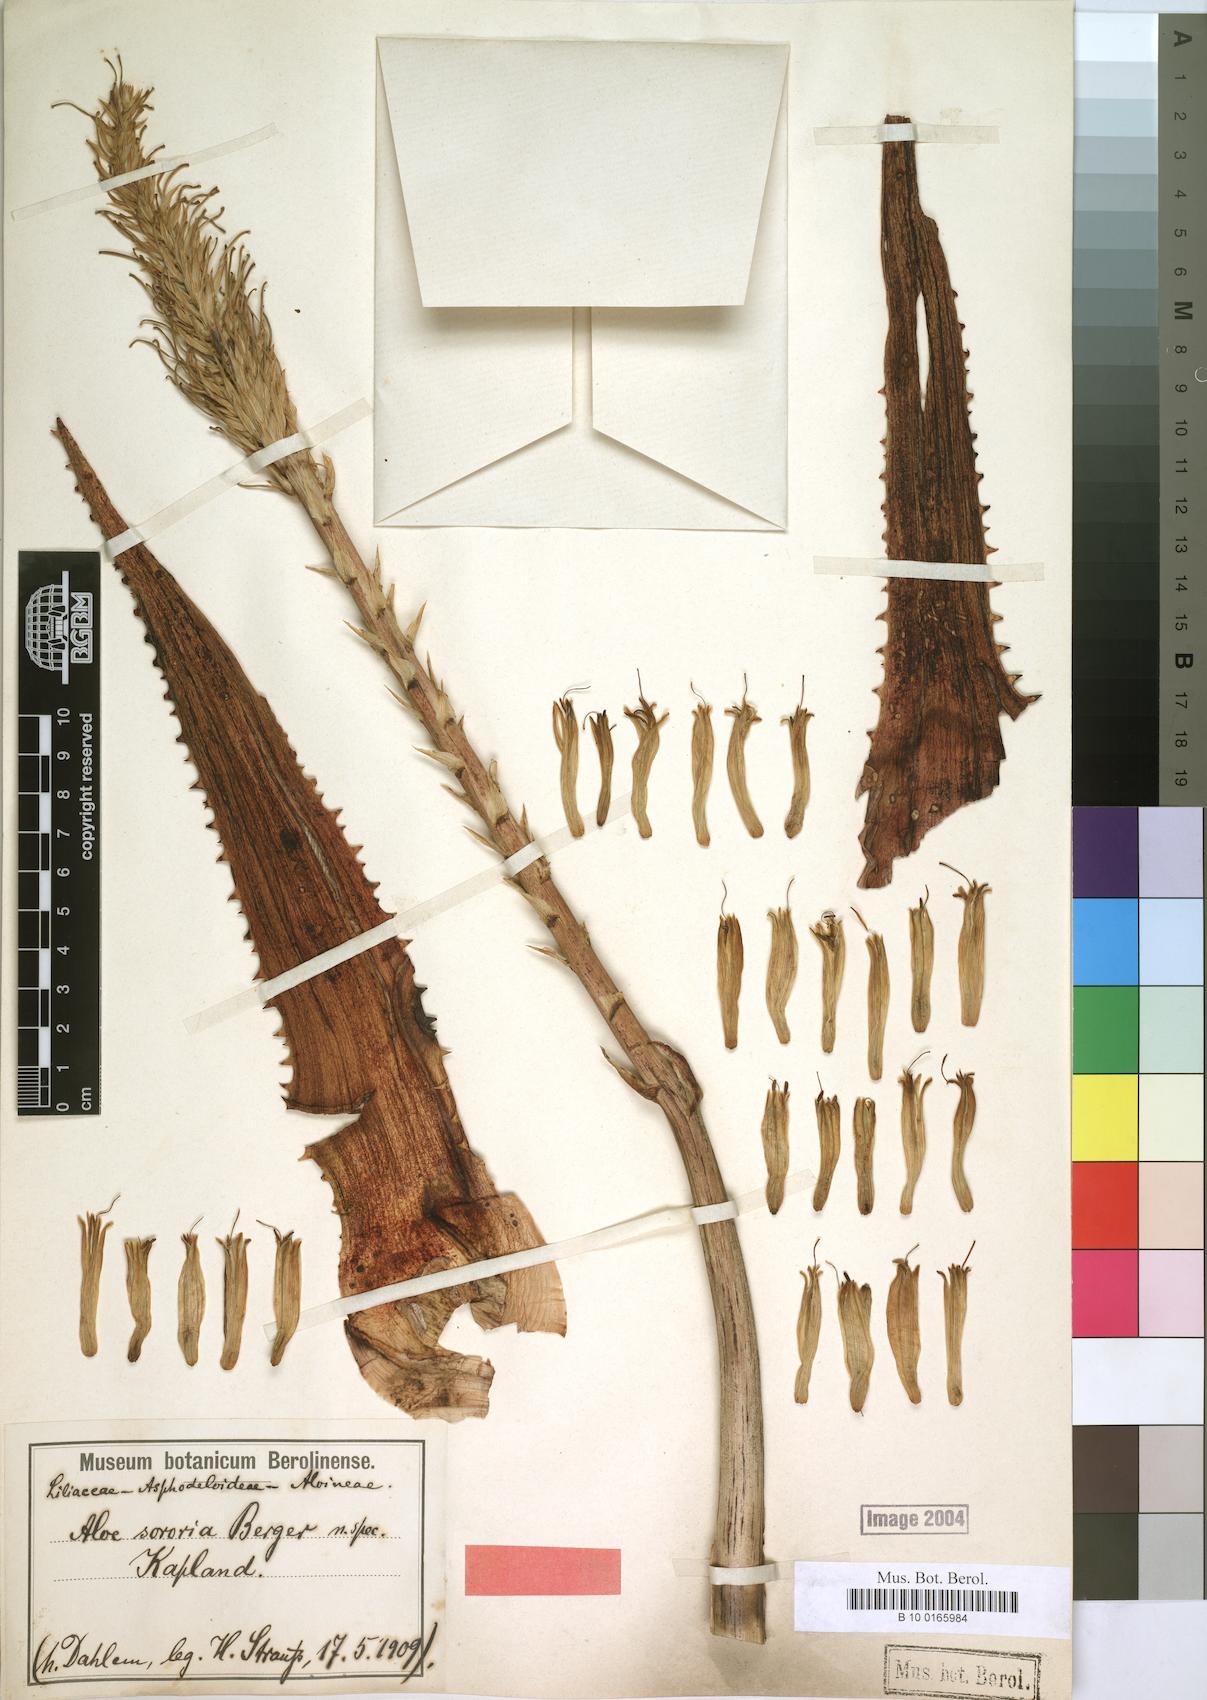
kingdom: Plantae
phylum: Tracheophyta
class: Liliopsida
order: Asparagales
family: Asphodelaceae
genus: Aloe
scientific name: Aloe sororia
